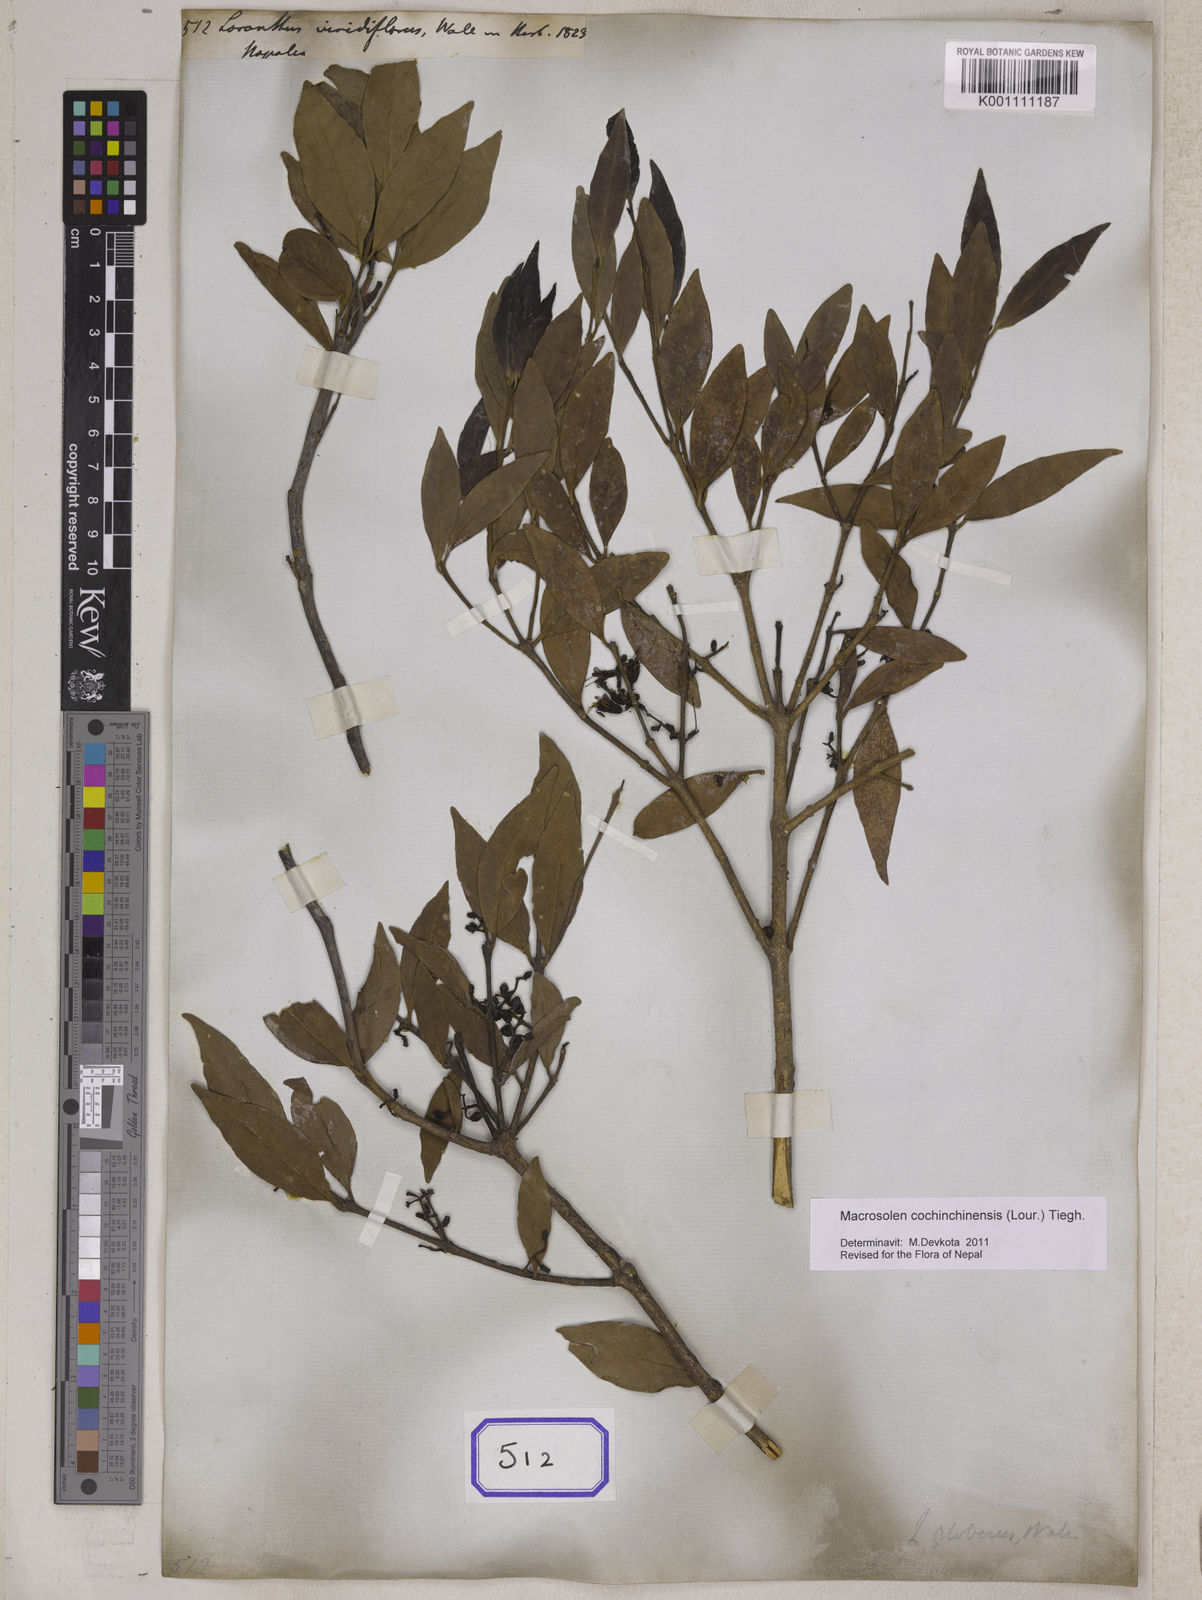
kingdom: Plantae
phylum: Tracheophyta
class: Magnoliopsida
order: Santalales
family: Loranthaceae
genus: Macrosolen
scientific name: Macrosolen cochinchinensis
